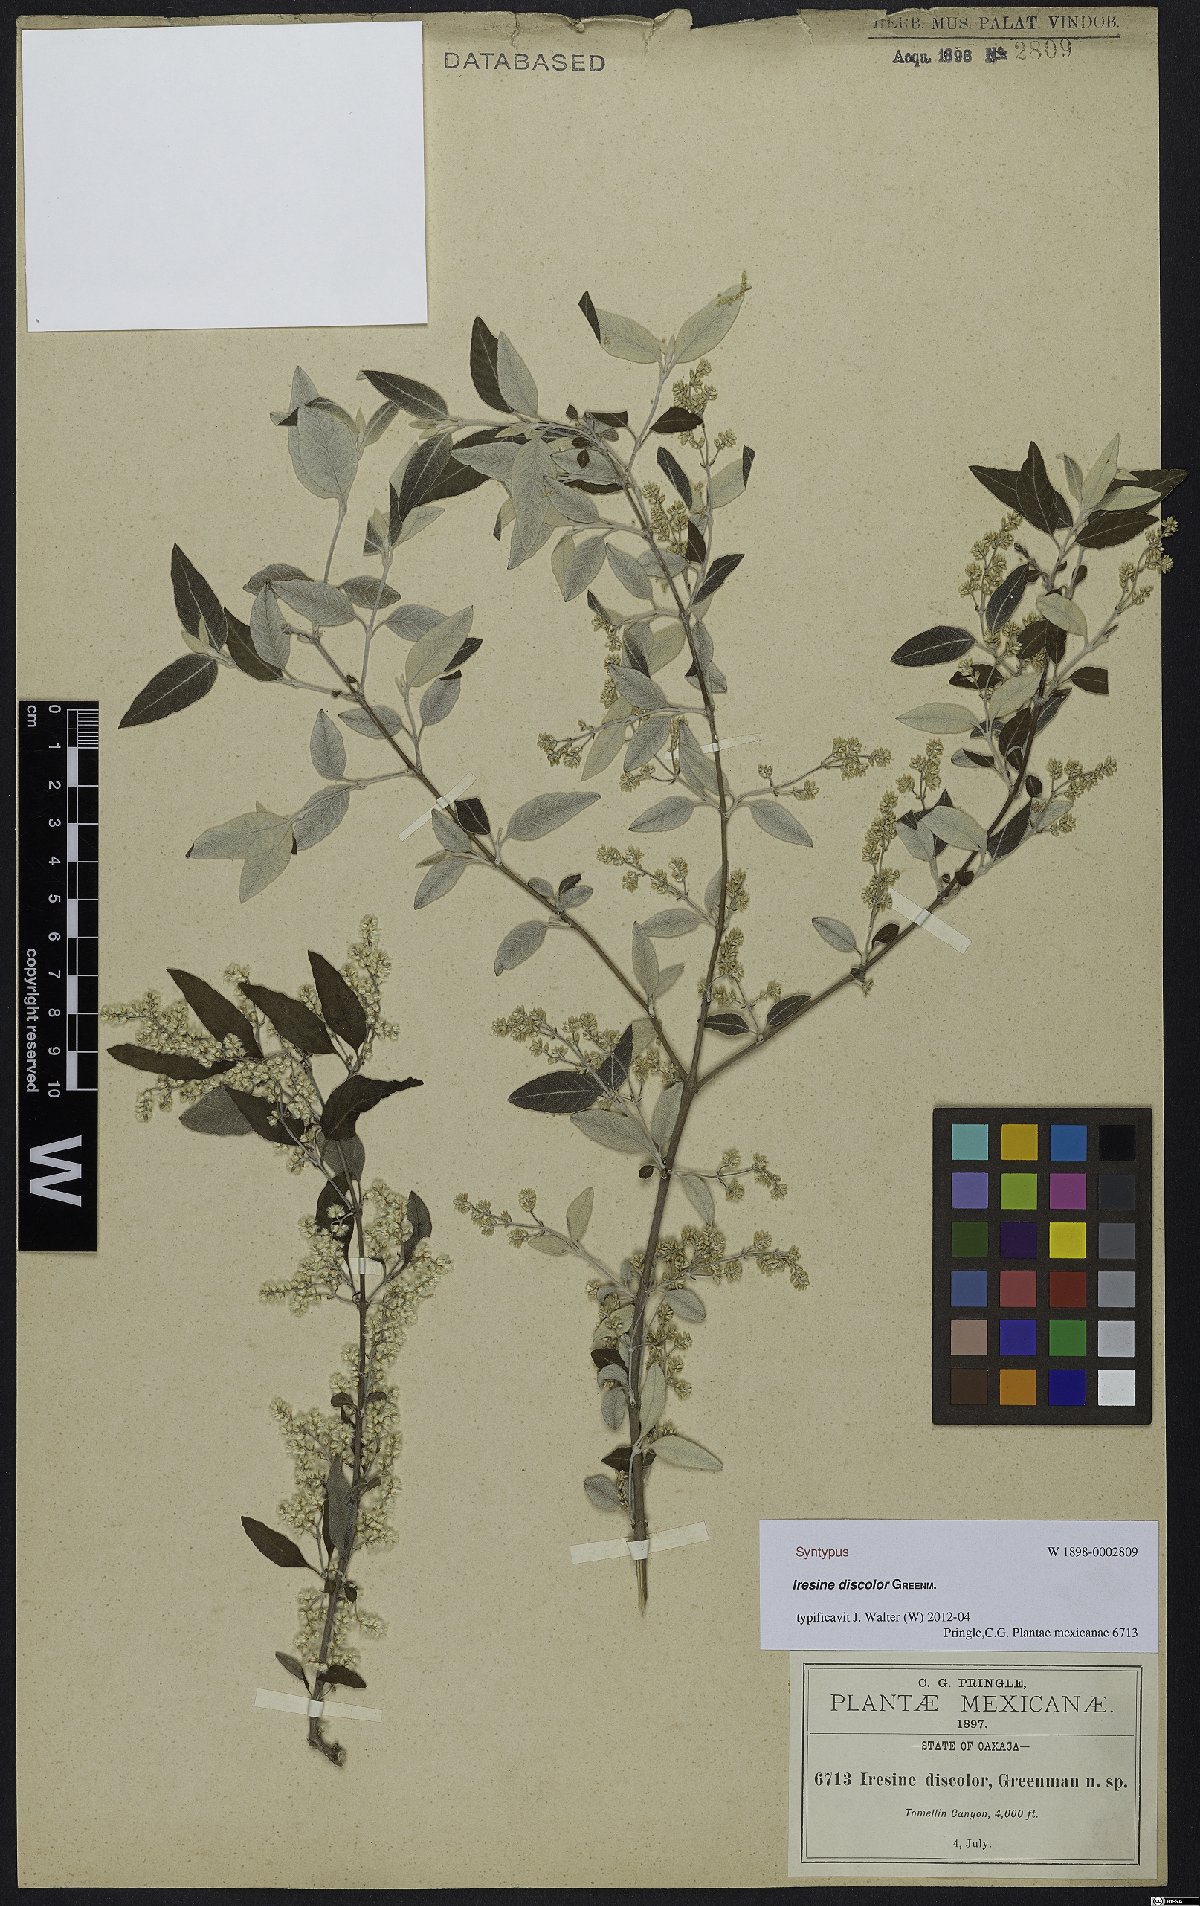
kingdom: Plantae
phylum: Tracheophyta
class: Magnoliopsida
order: Caryophyllales
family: Amaranthaceae
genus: Iresine
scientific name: Iresine discolor
